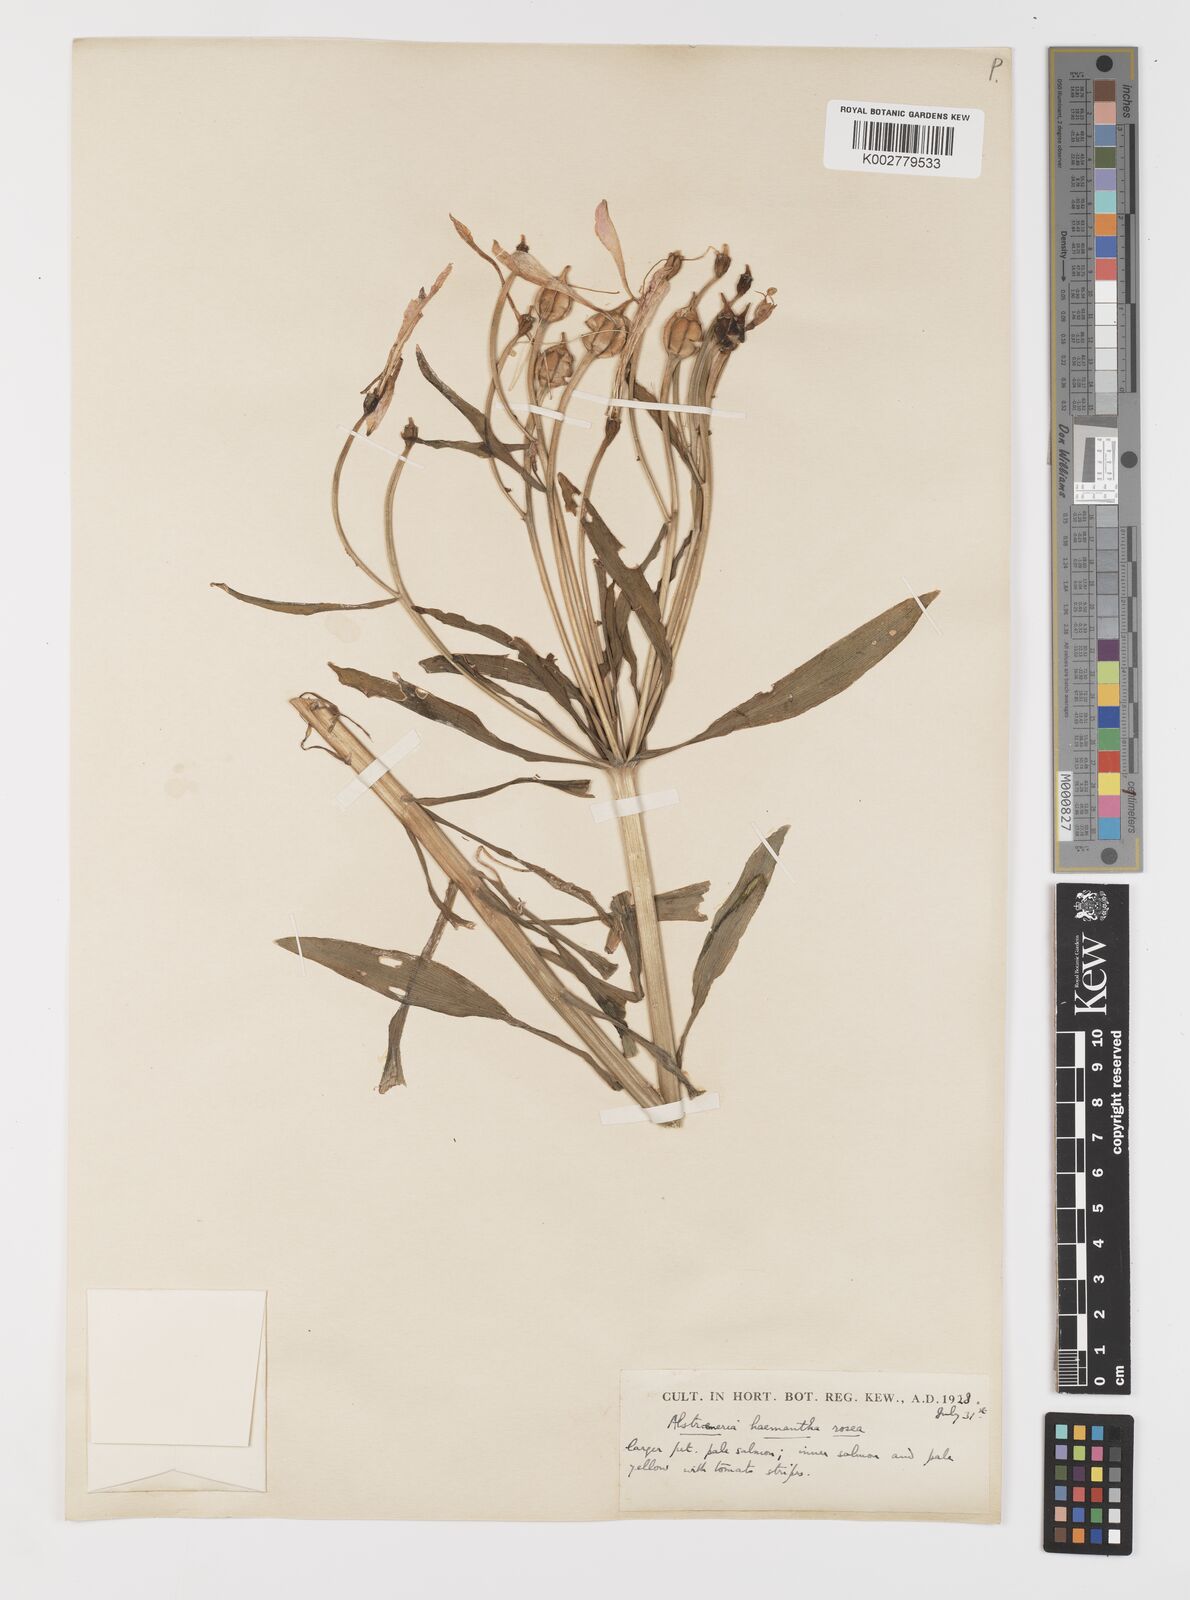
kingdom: Plantae
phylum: Tracheophyta
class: Liliopsida
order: Liliales
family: Alstroemeriaceae
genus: Alstroemeria
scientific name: Alstroemeria ligtu
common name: St. martin's-flower
